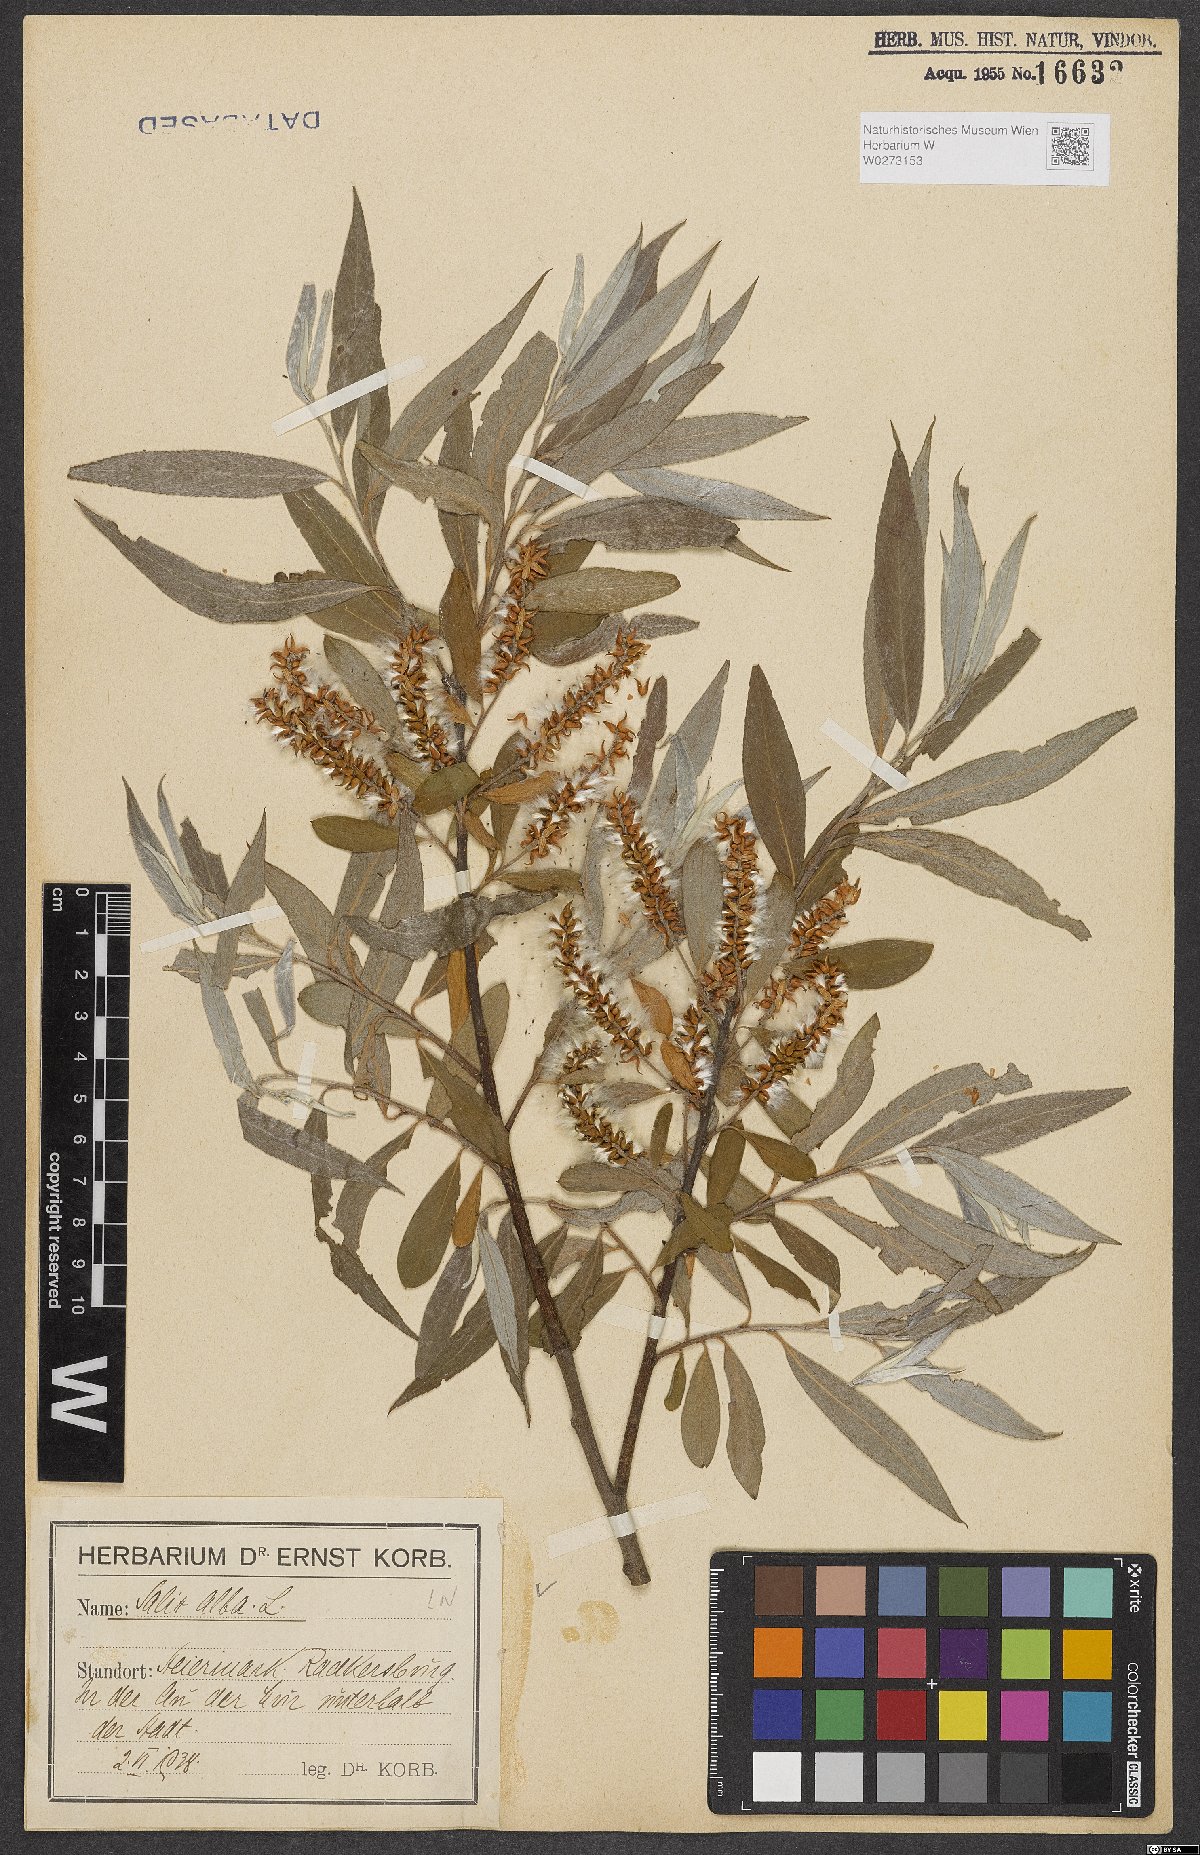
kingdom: Plantae
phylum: Tracheophyta
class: Magnoliopsida
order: Malpighiales
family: Salicaceae
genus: Salix
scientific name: Salix alba
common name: White willow
